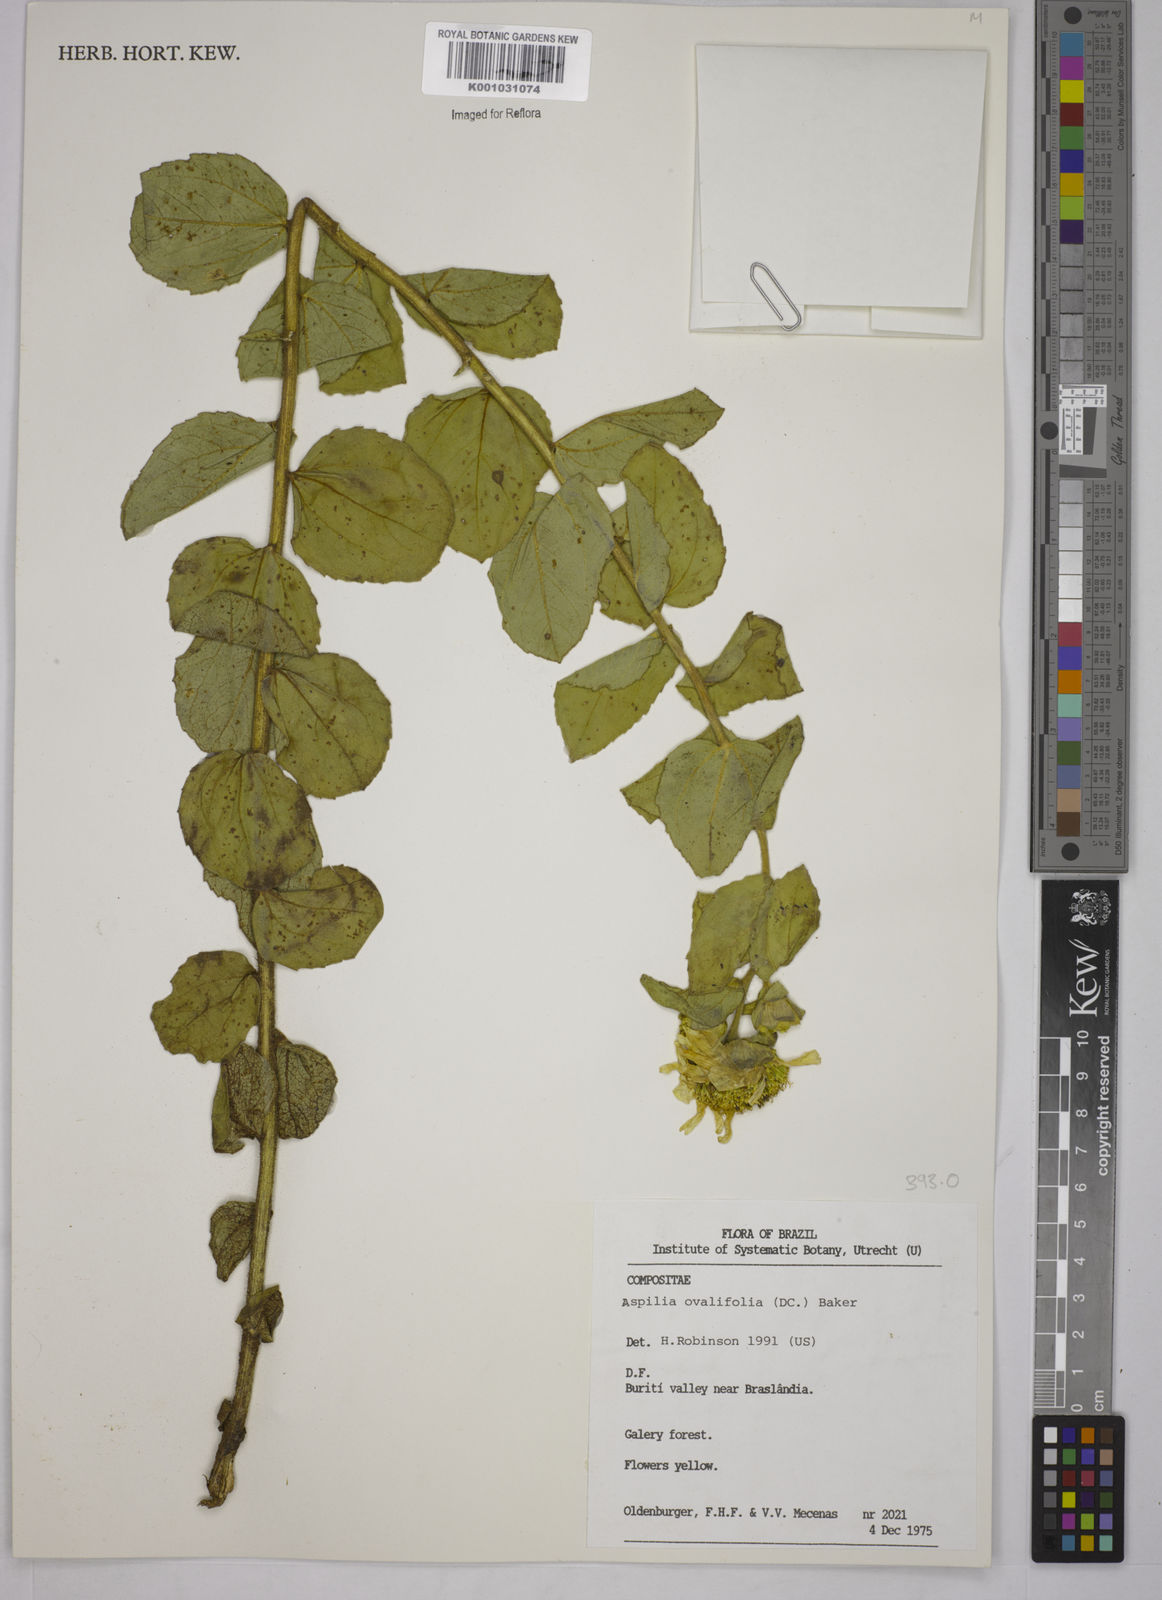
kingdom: Plantae
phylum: Tracheophyta
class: Magnoliopsida
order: Asterales
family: Asteraceae
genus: Wedelia
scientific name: Wedelia ovalifolia
